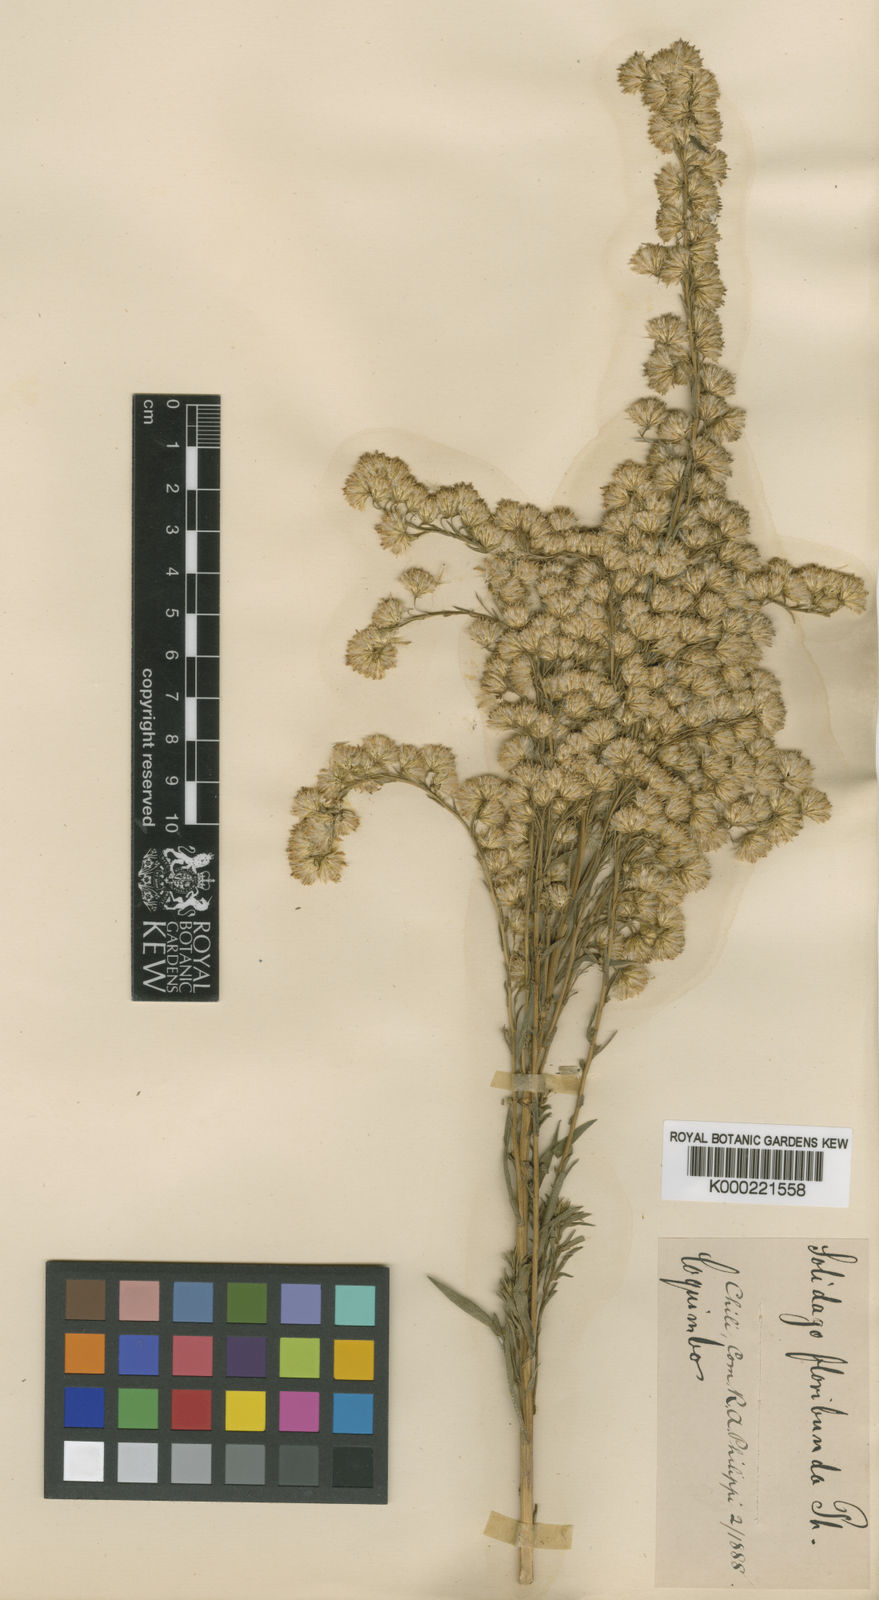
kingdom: Plantae
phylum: Tracheophyta
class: Magnoliopsida
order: Asterales
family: Asteraceae
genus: Solidago
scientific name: Solidago chilensis
